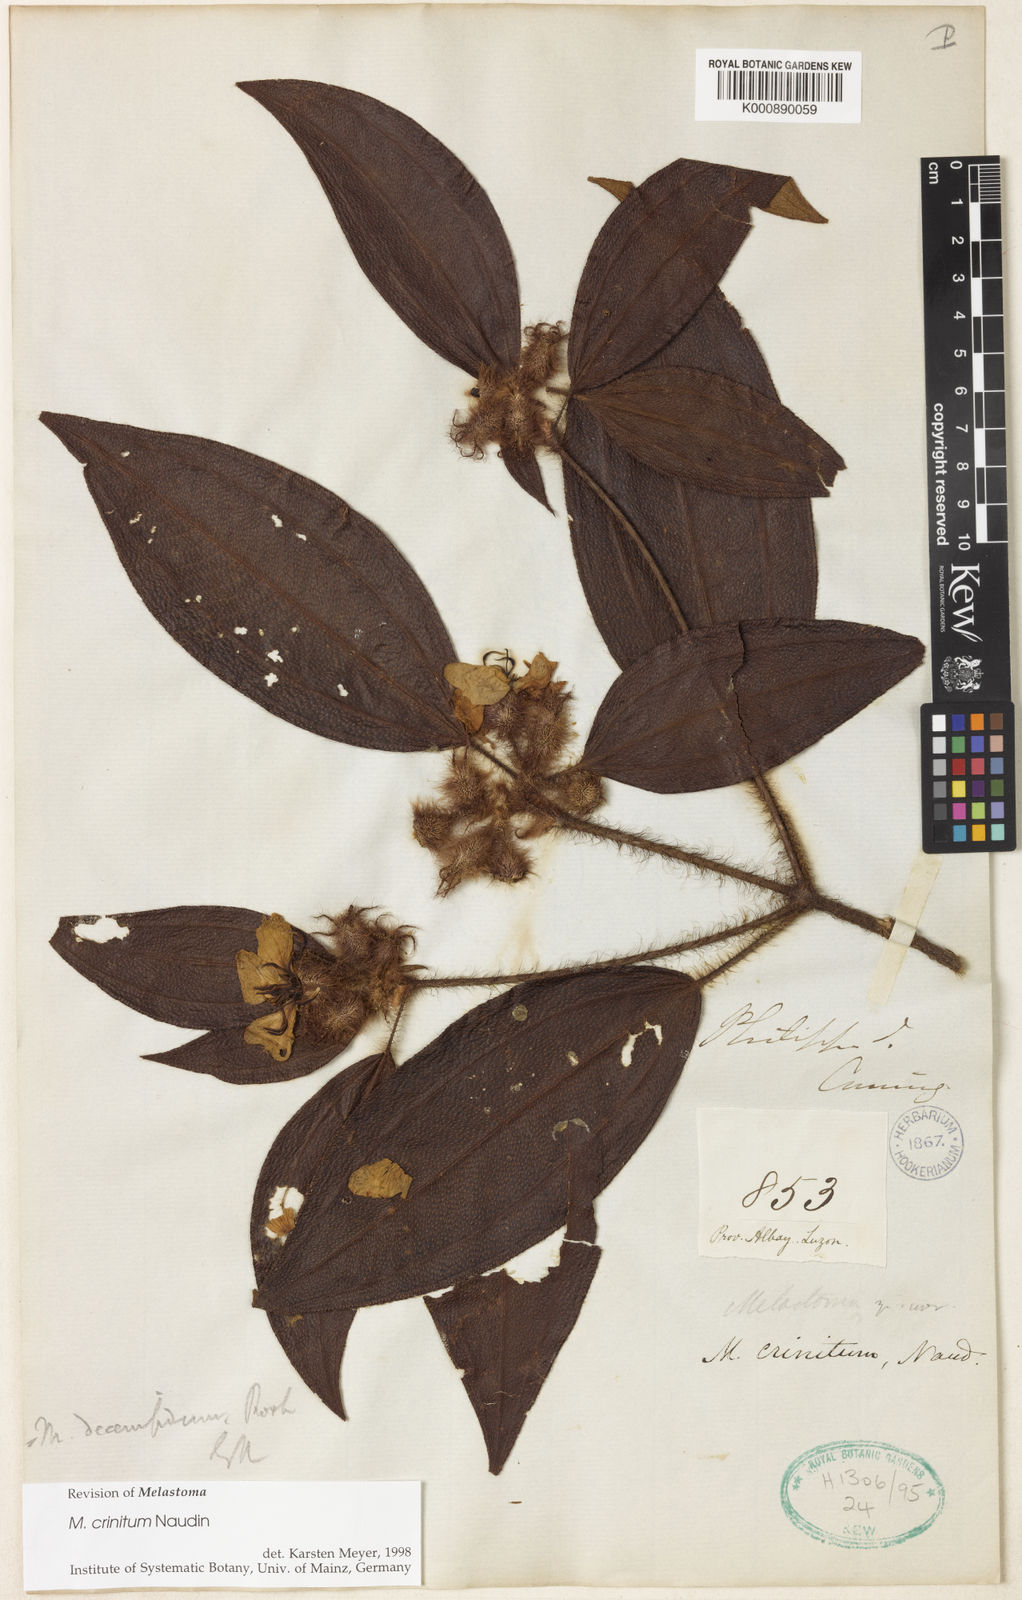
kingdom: Plantae
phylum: Tracheophyta
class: Magnoliopsida
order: Myrtales
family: Melastomataceae
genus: Melastoma
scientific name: Melastoma penicillatum
